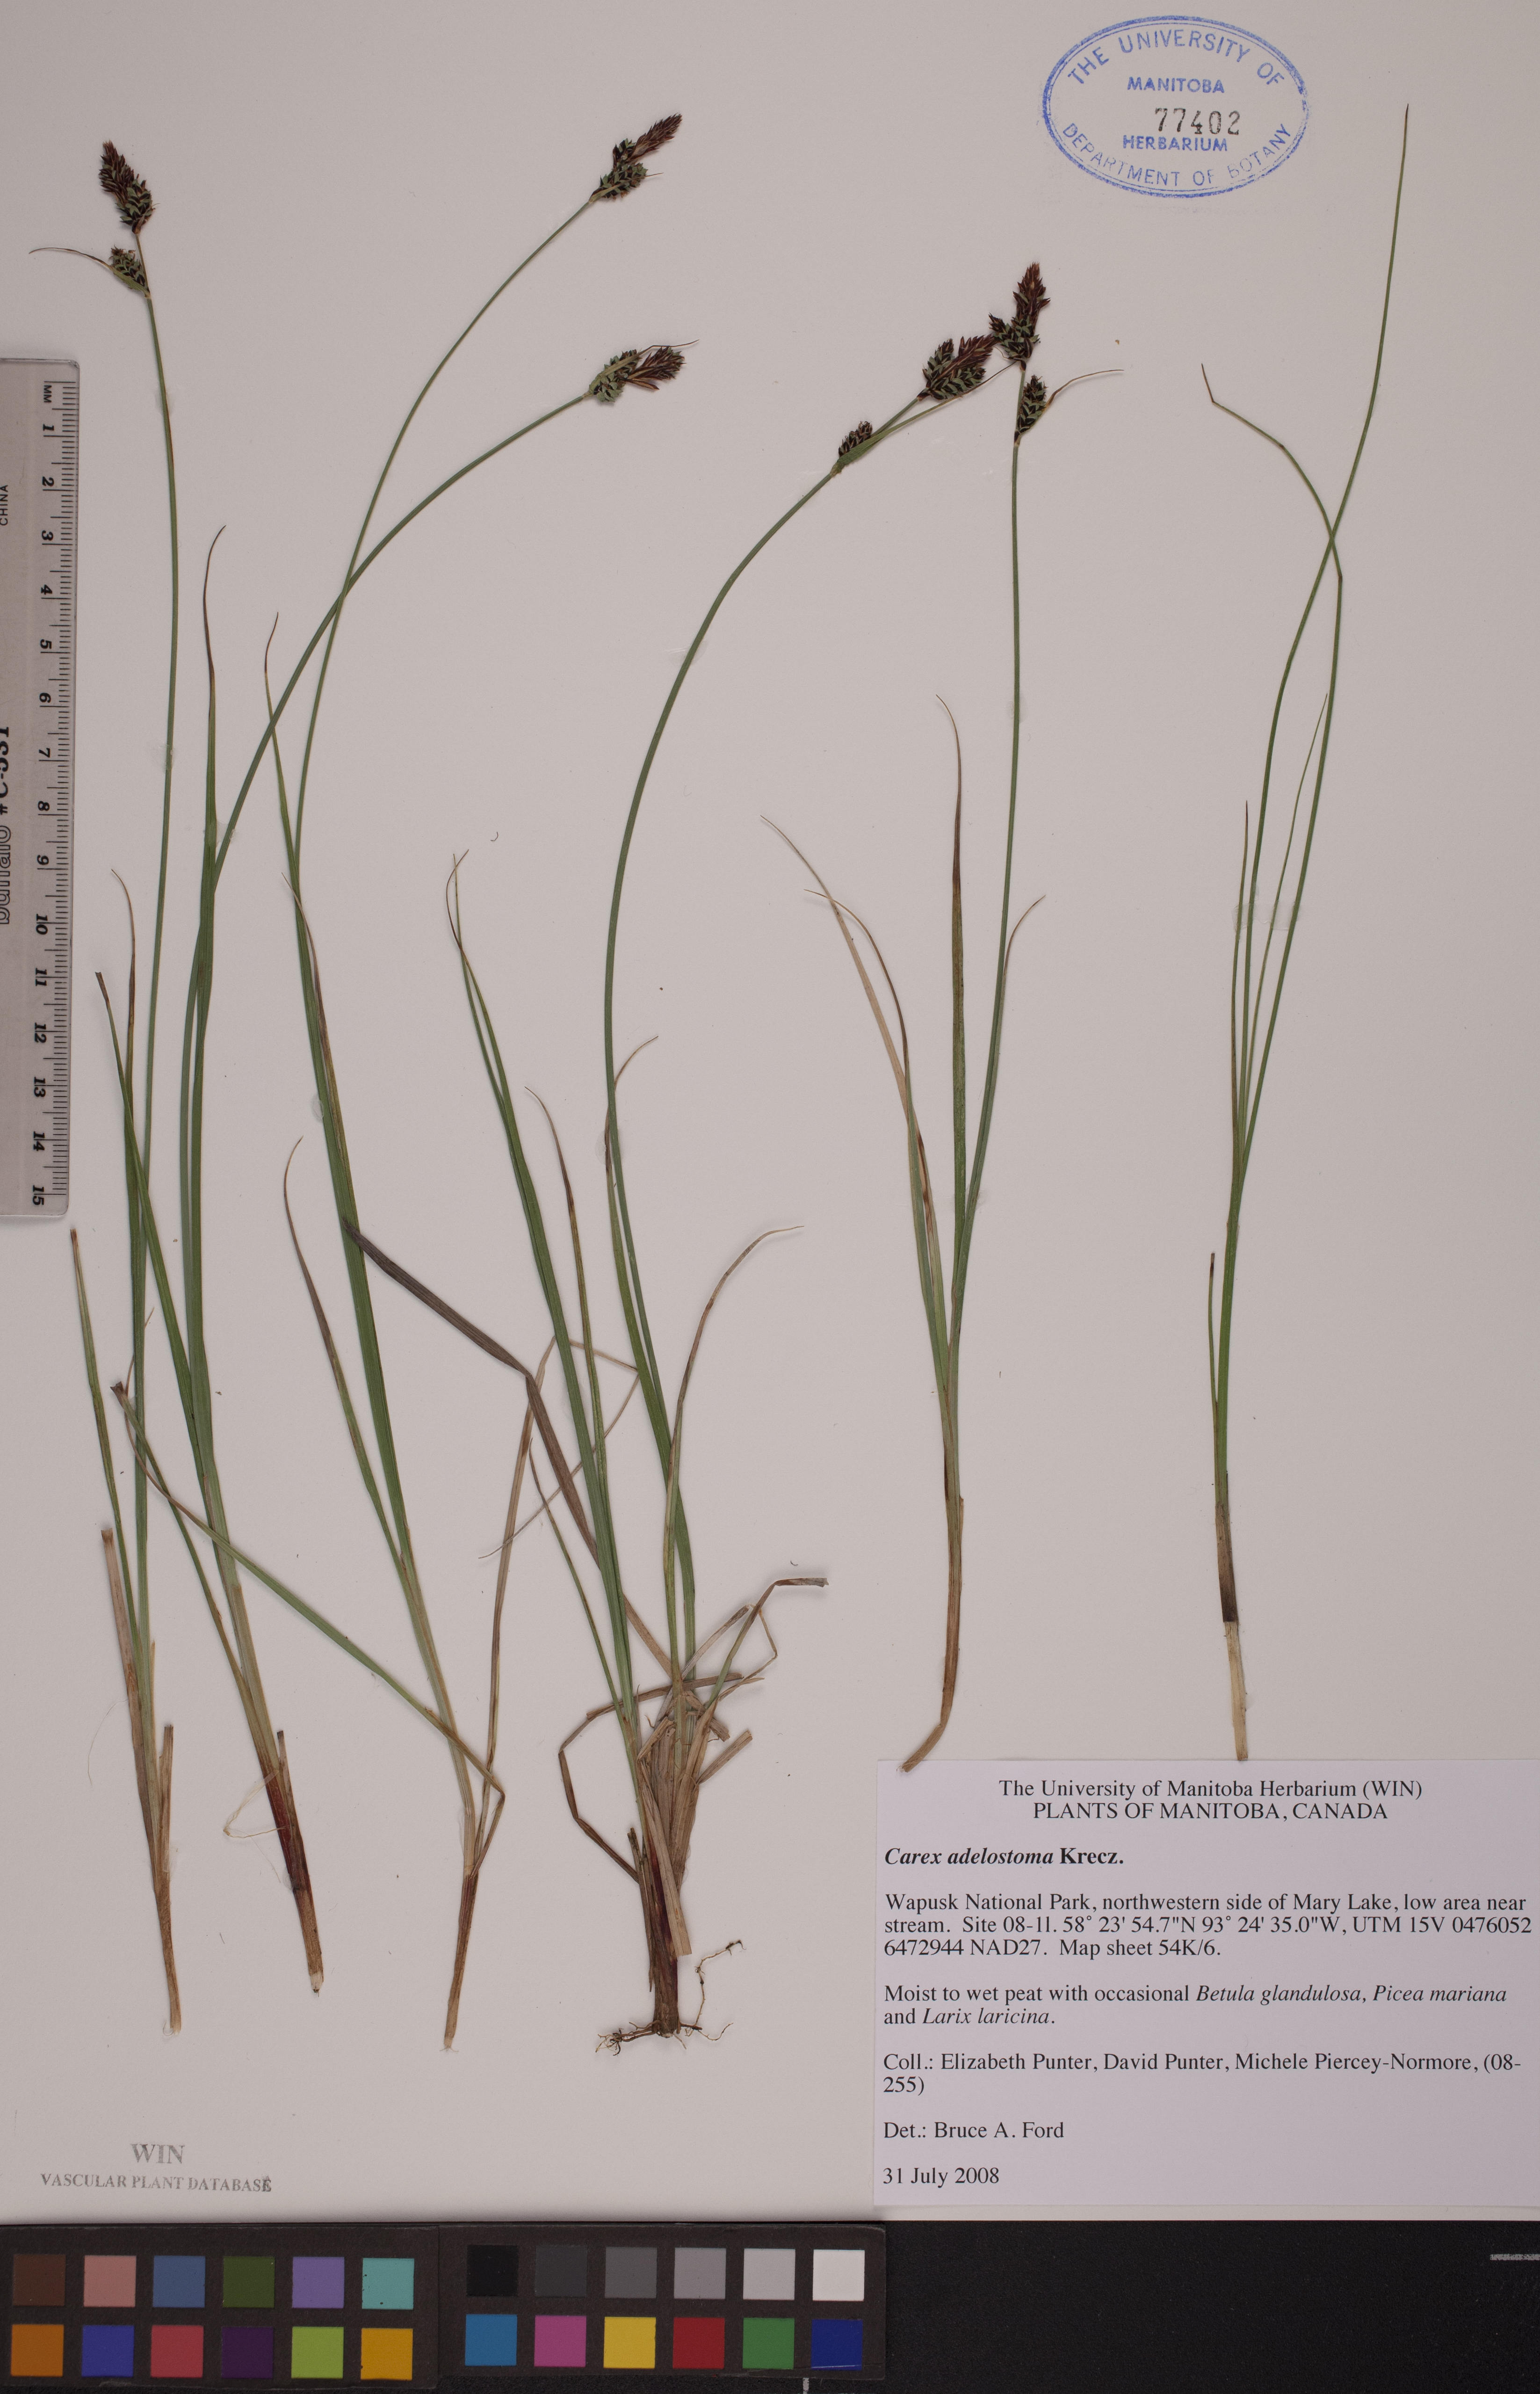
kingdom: Plantae
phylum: Tracheophyta
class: Liliopsida
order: Poales
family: Cyperaceae
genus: Carex
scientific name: Carex adelostoma
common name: Circumpolar sedge
